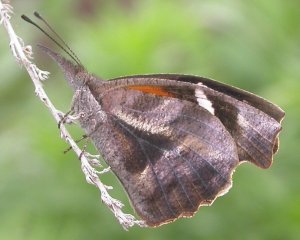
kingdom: Animalia
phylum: Arthropoda
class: Insecta
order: Lepidoptera
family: Nymphalidae
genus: Libytheana
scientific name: Libytheana carinenta
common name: American Snout
